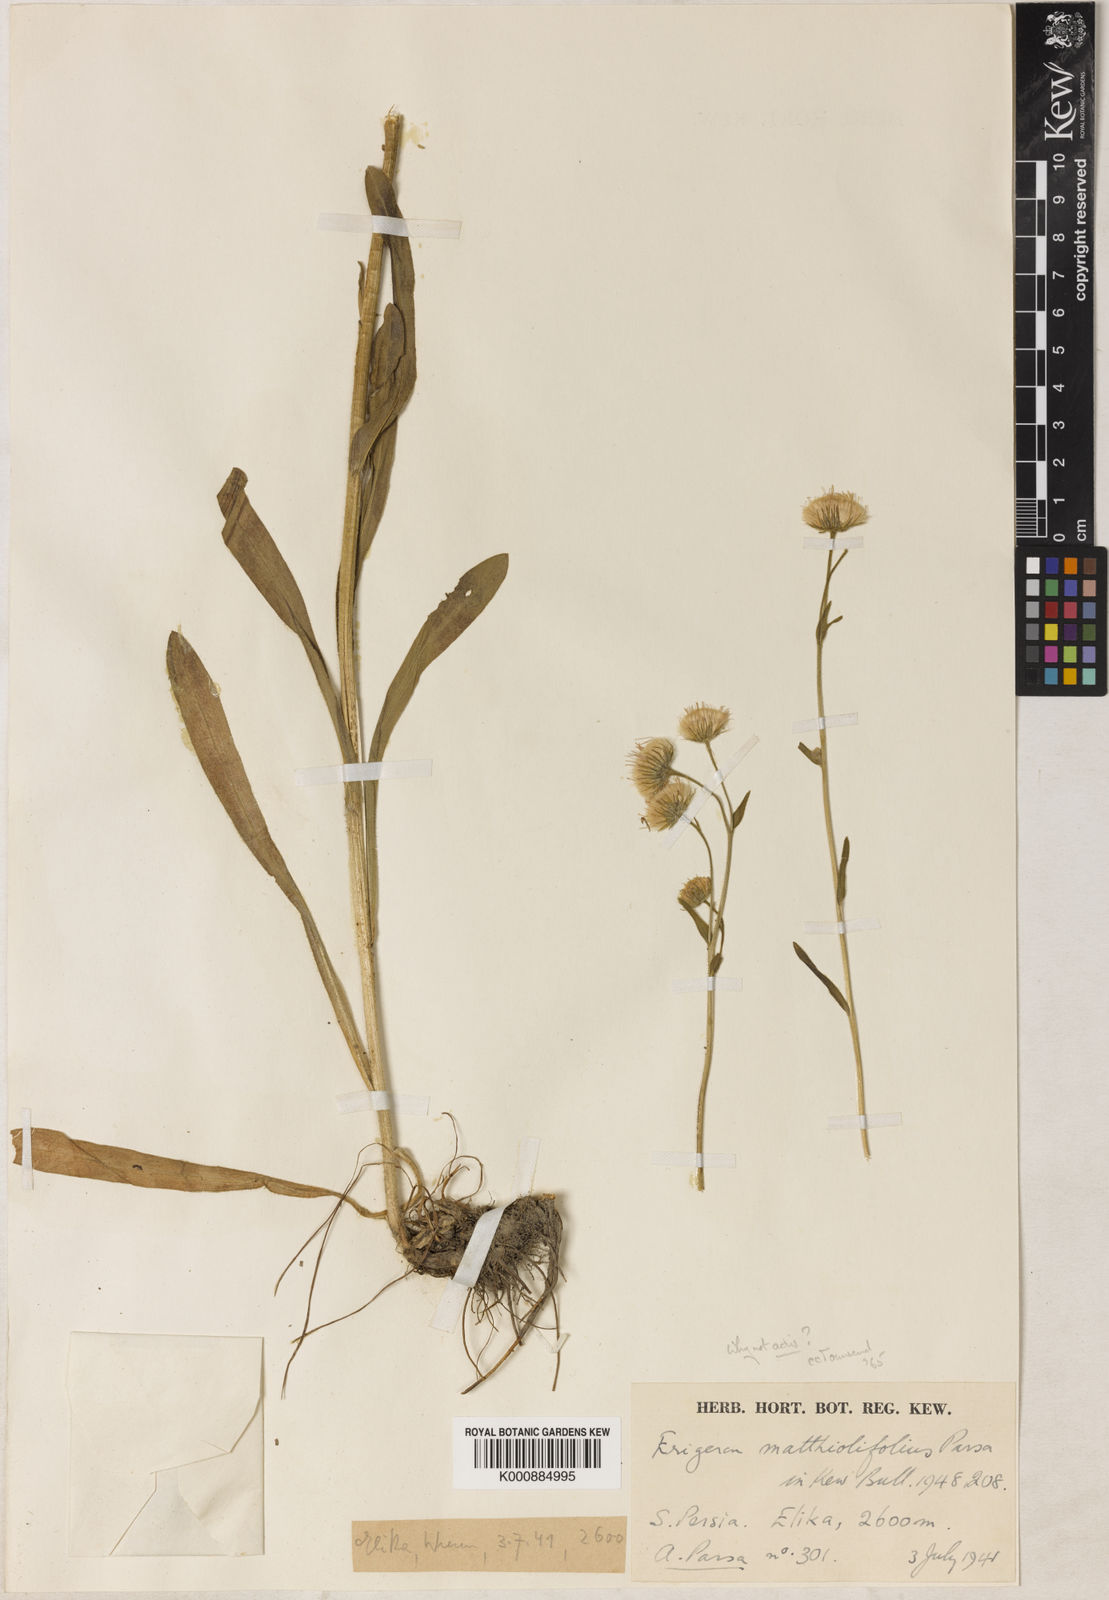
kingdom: Plantae
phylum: Tracheophyta
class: Magnoliopsida
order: Asterales
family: Asteraceae
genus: Erigeron
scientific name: Erigeron
